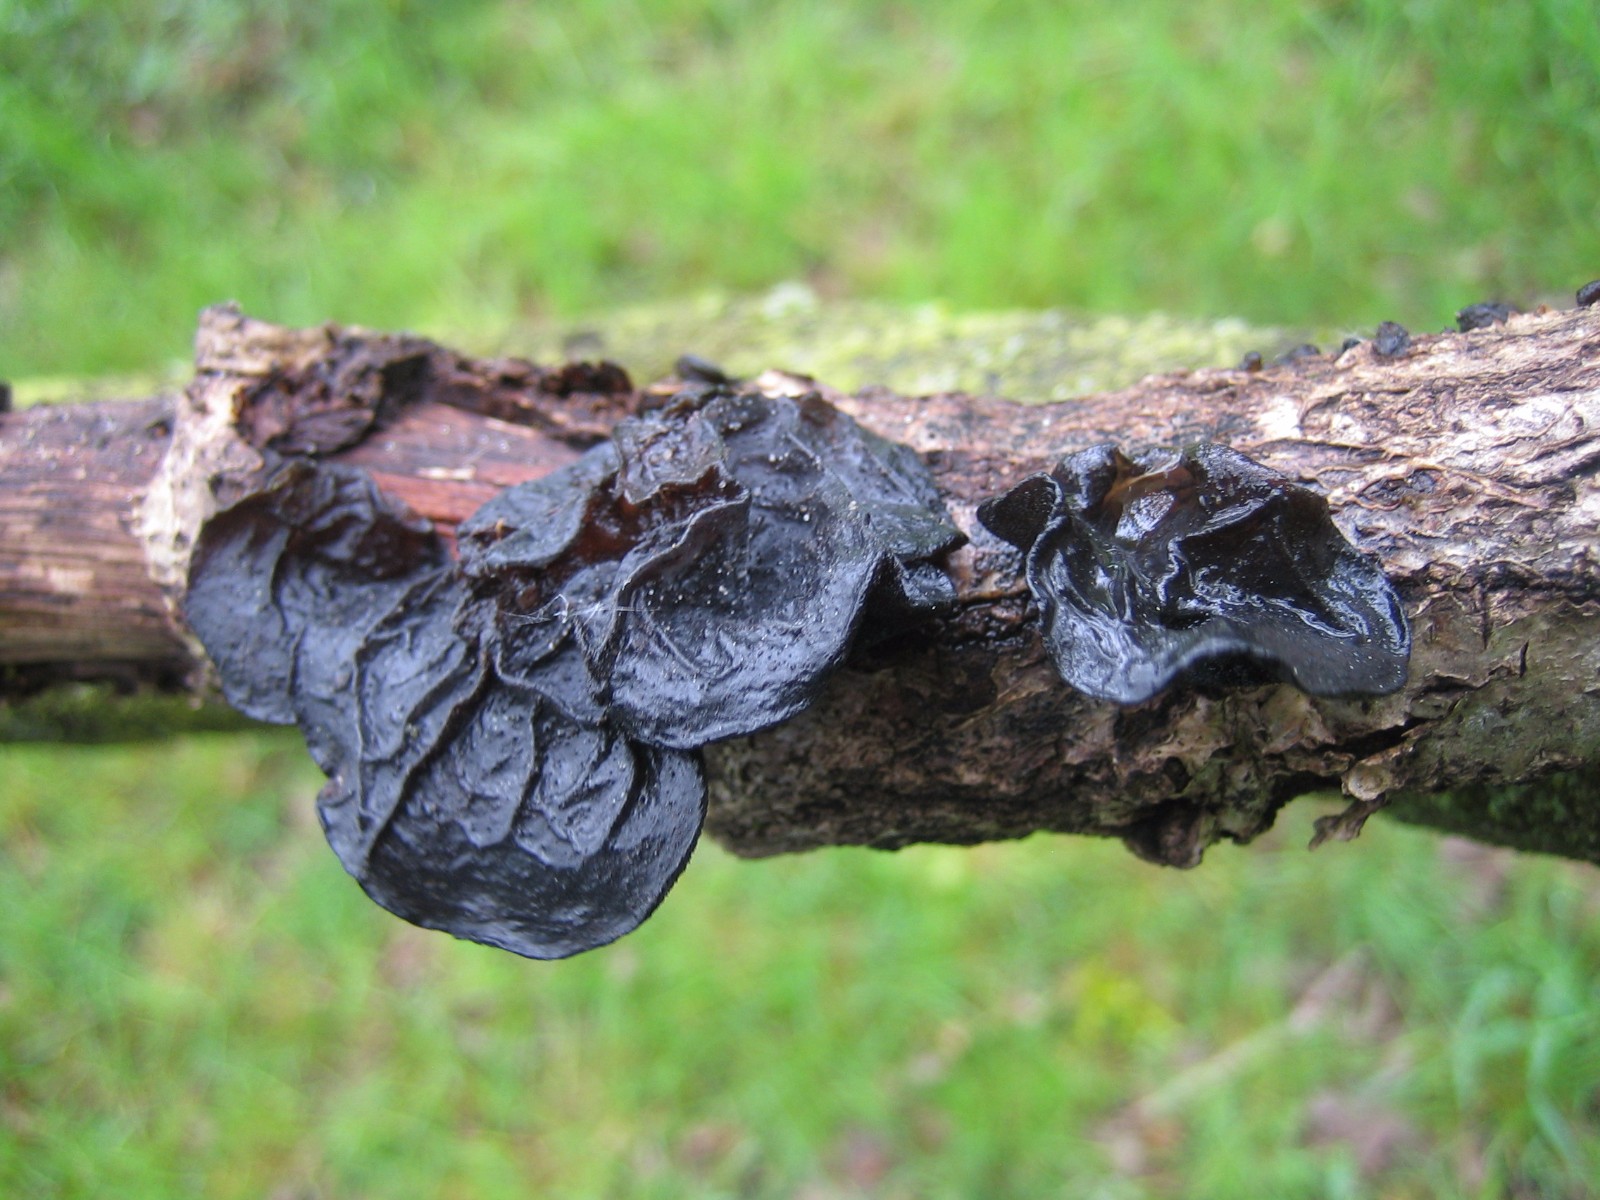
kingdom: Fungi
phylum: Basidiomycota
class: Agaricomycetes
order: Auriculariales
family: Auriculariaceae
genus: Exidia
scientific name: Exidia glandulosa
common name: ege-bævretop
